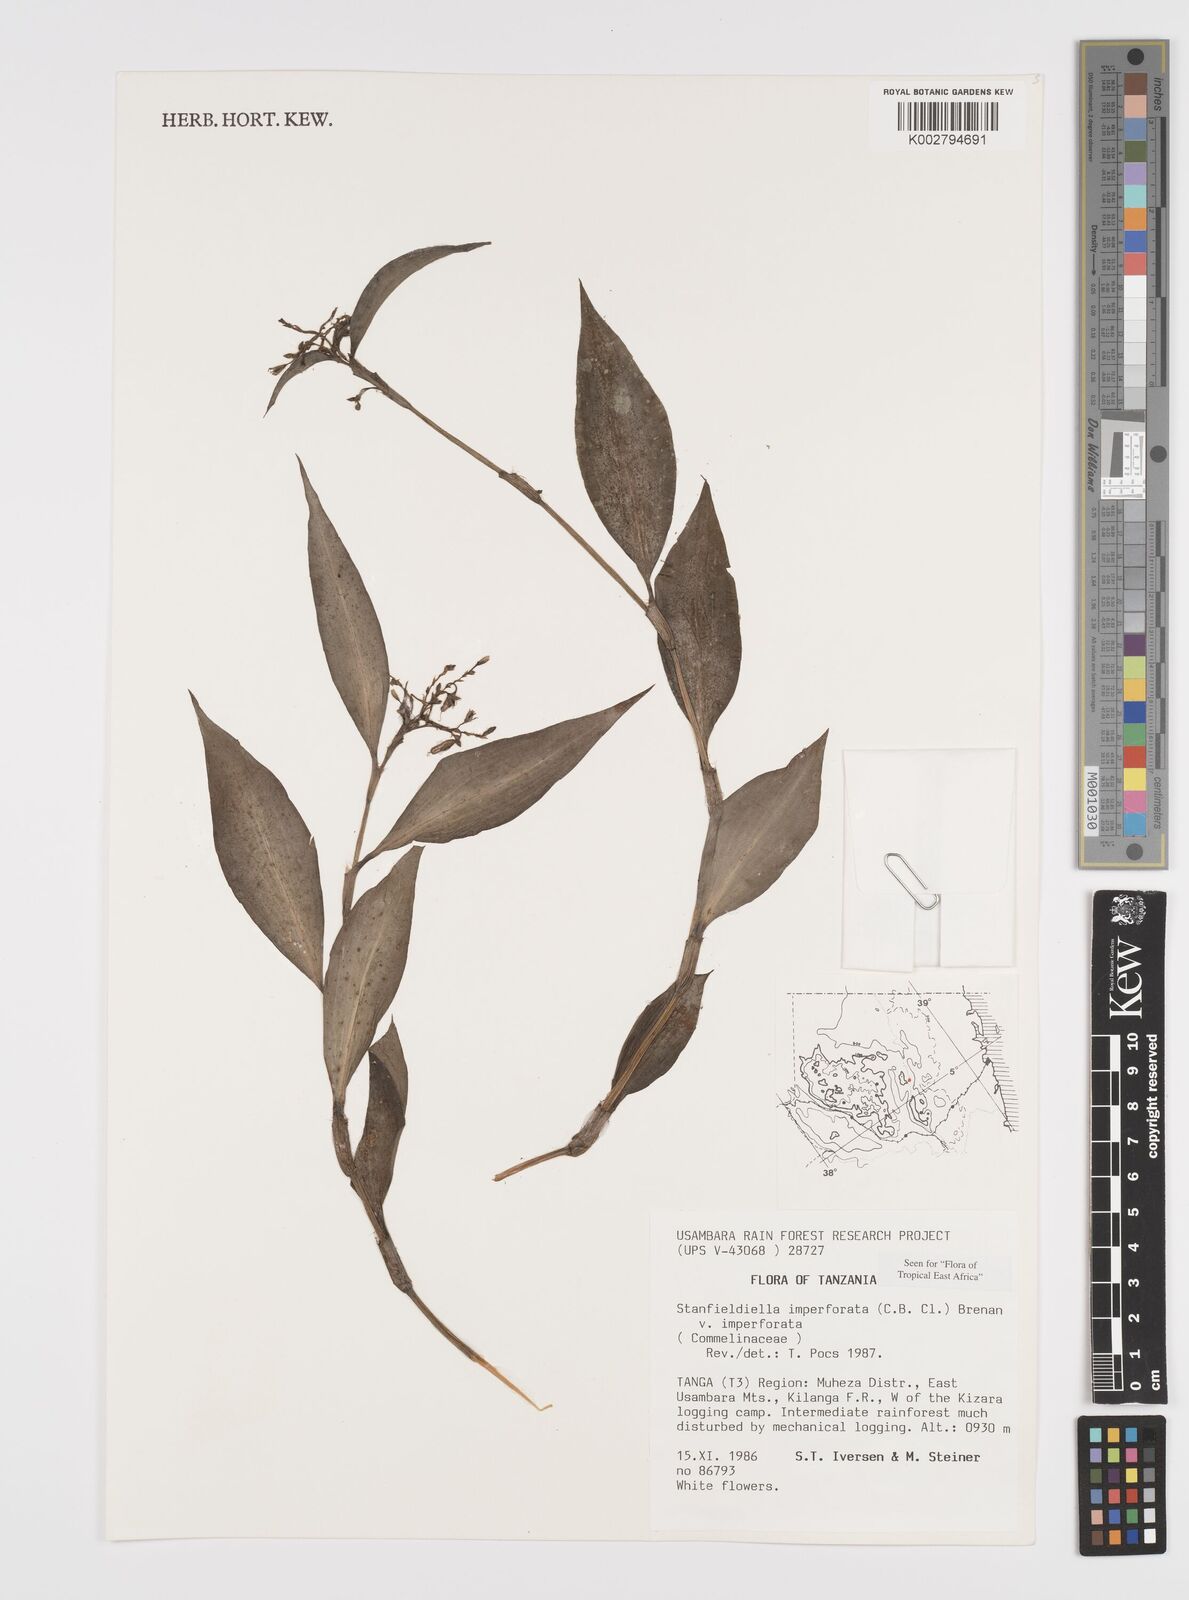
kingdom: Plantae
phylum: Tracheophyta
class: Liliopsida
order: Commelinales
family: Commelinaceae
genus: Stanfieldiella
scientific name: Stanfieldiella imperforata
